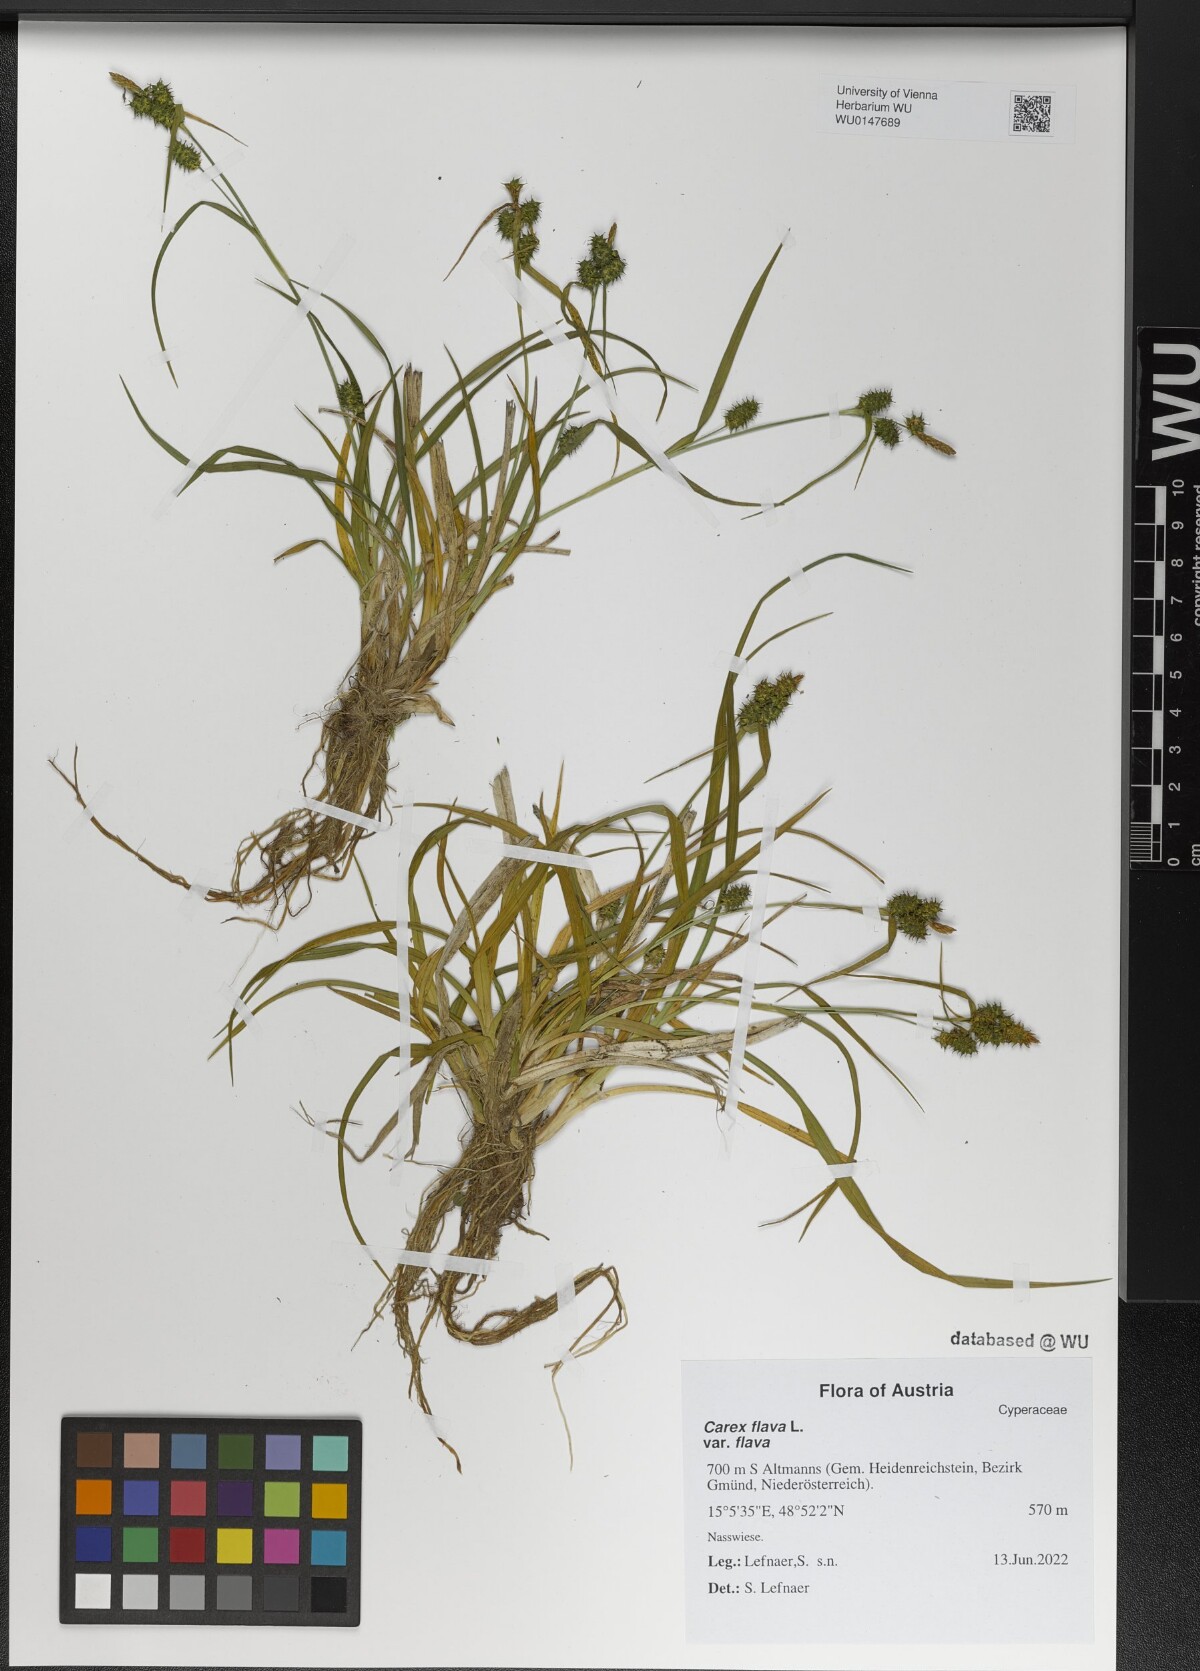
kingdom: Plantae
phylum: Tracheophyta
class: Liliopsida
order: Poales
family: Cyperaceae
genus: Carex
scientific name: Carex flava
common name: Large yellow-sedge
